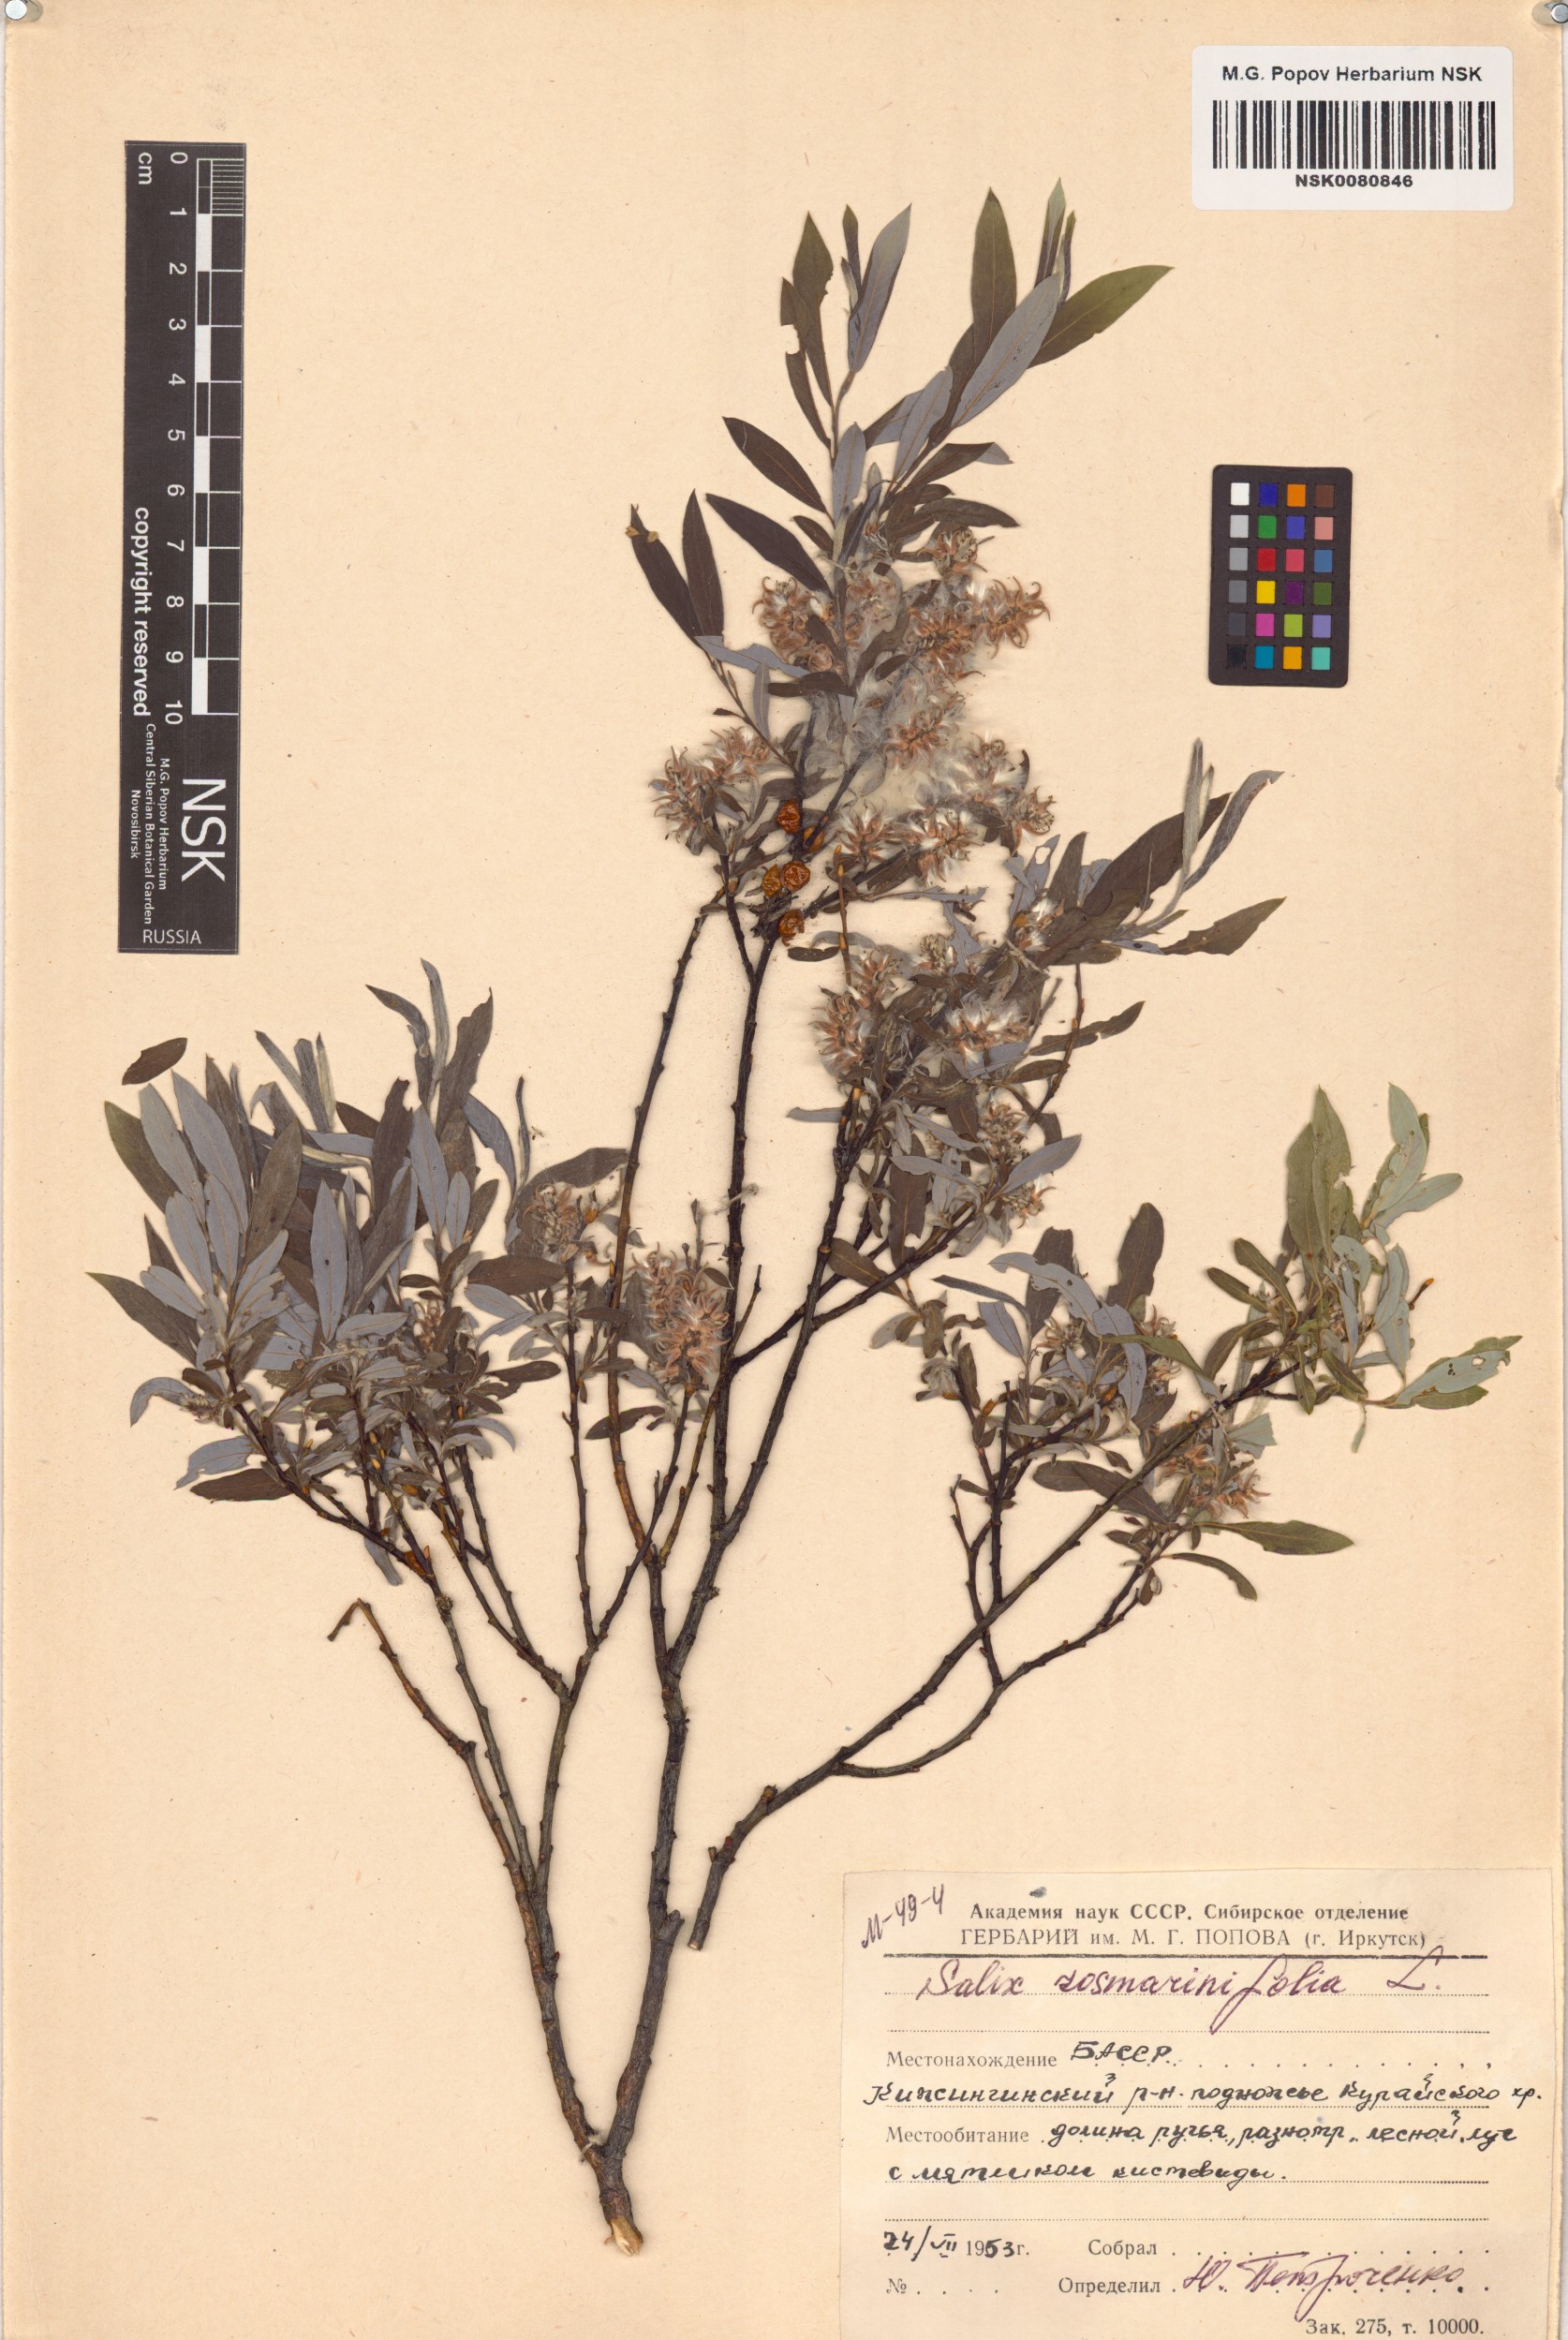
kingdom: Plantae
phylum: Tracheophyta
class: Magnoliopsida
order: Malpighiales
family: Salicaceae
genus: Salix
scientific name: Salix rosmarinifolia
